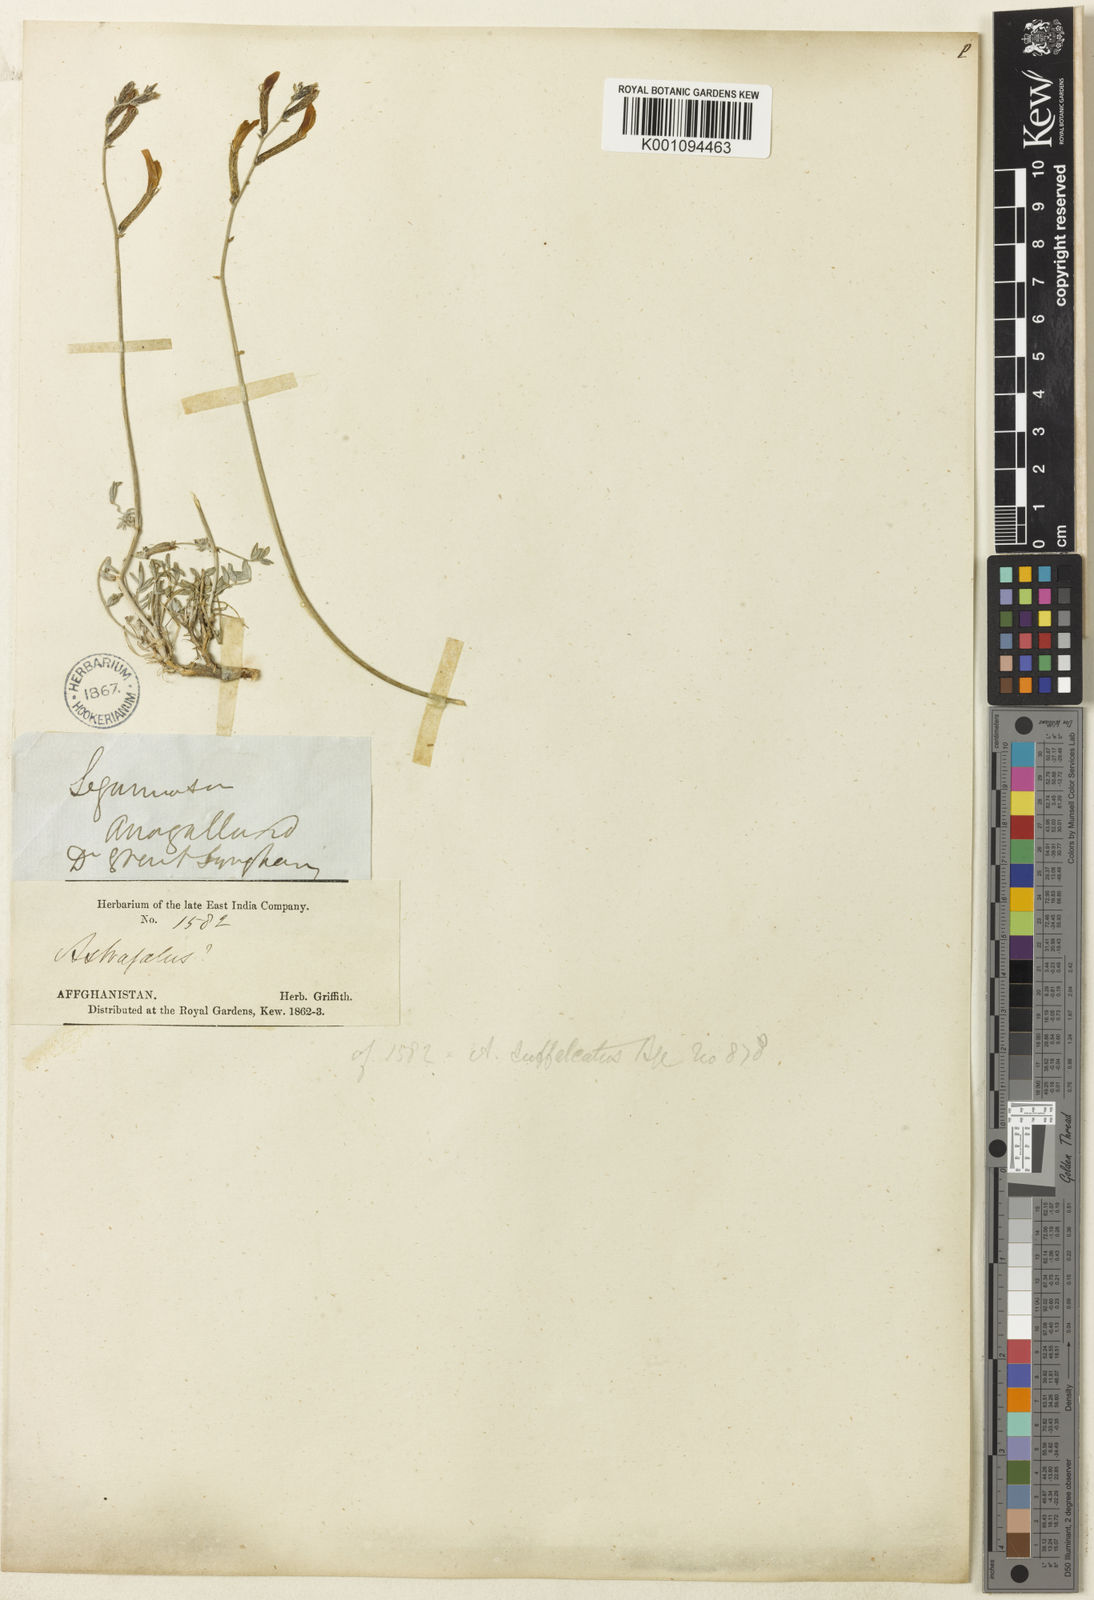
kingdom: Plantae
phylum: Tracheophyta
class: Magnoliopsida
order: Fabales
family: Fabaceae
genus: Astragalus
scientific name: Astragalus
